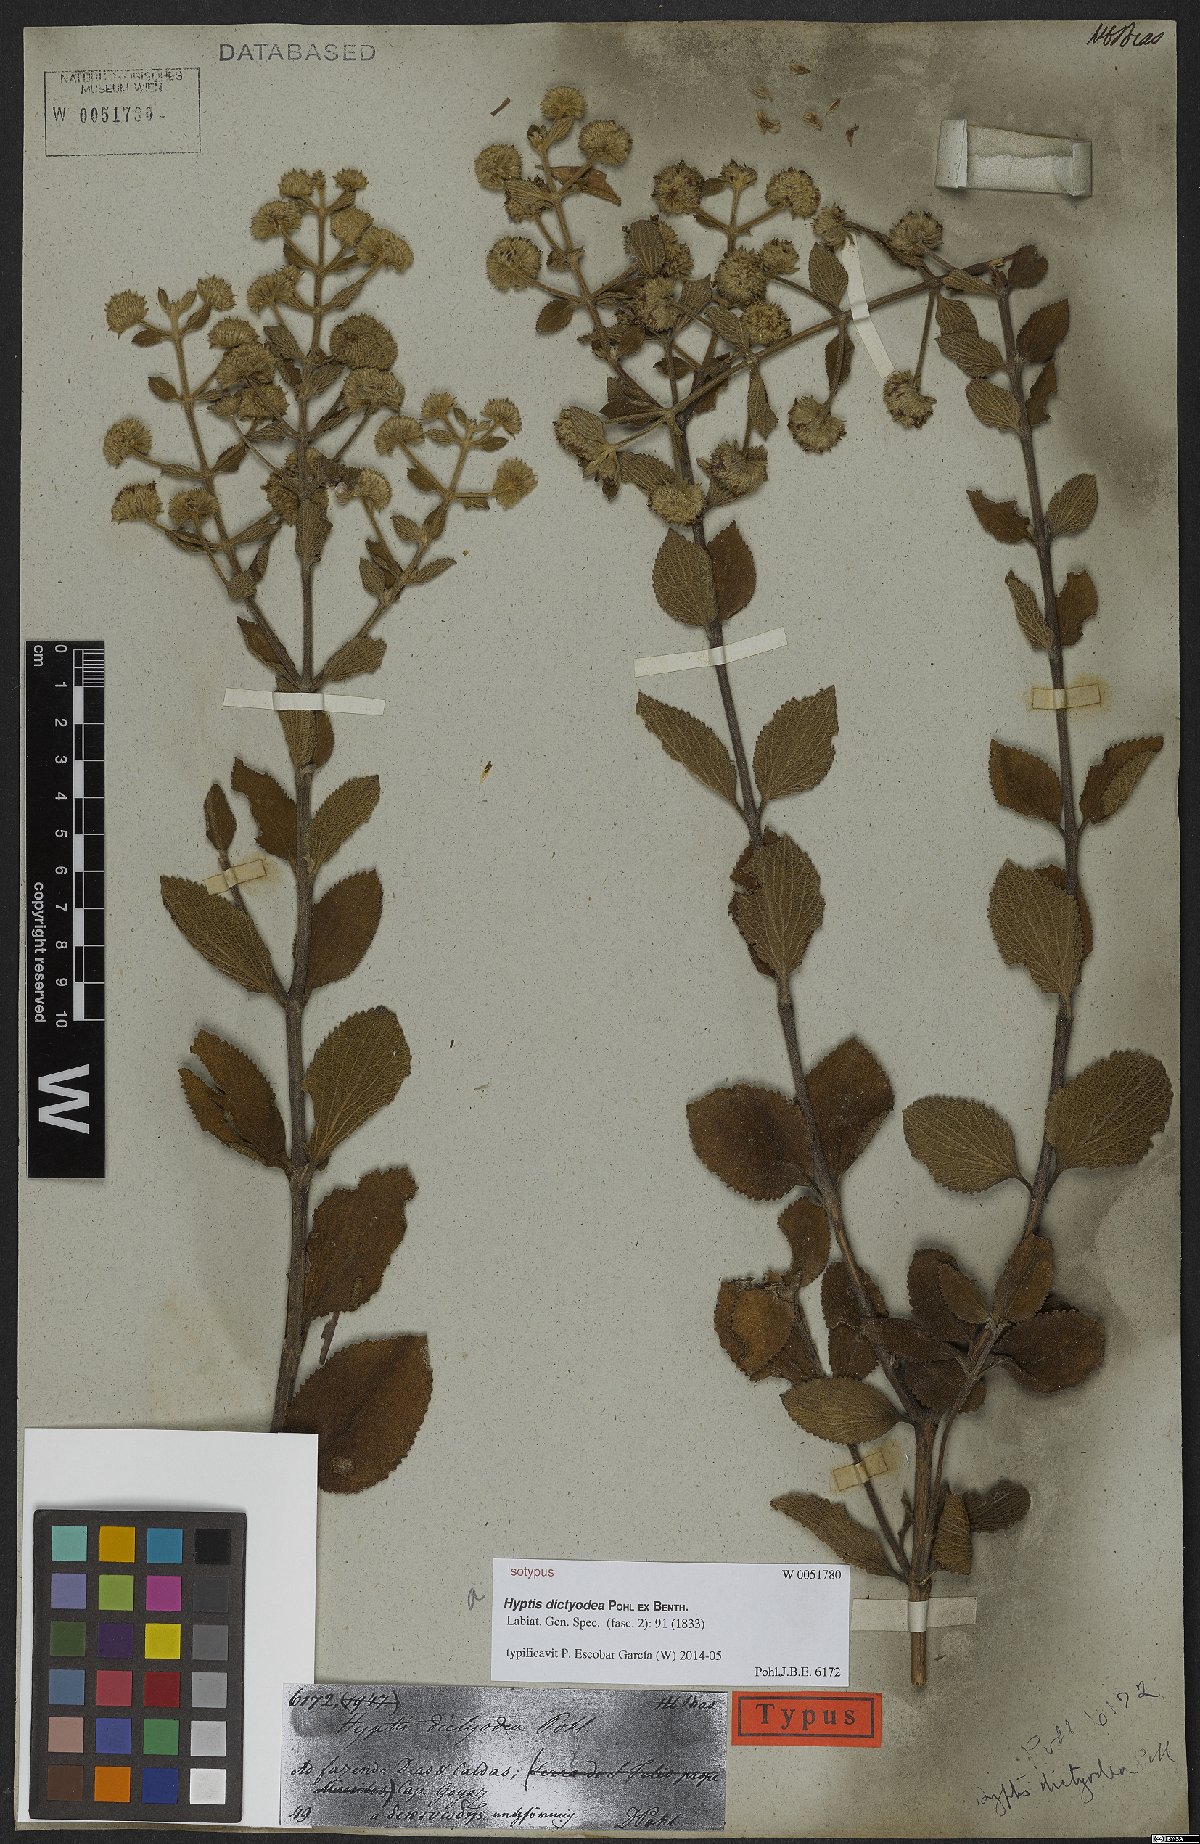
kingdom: Plantae
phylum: Tracheophyta
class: Magnoliopsida
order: Lamiales
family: Lamiaceae
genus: Hyptis
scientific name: Hyptis dictyodea
